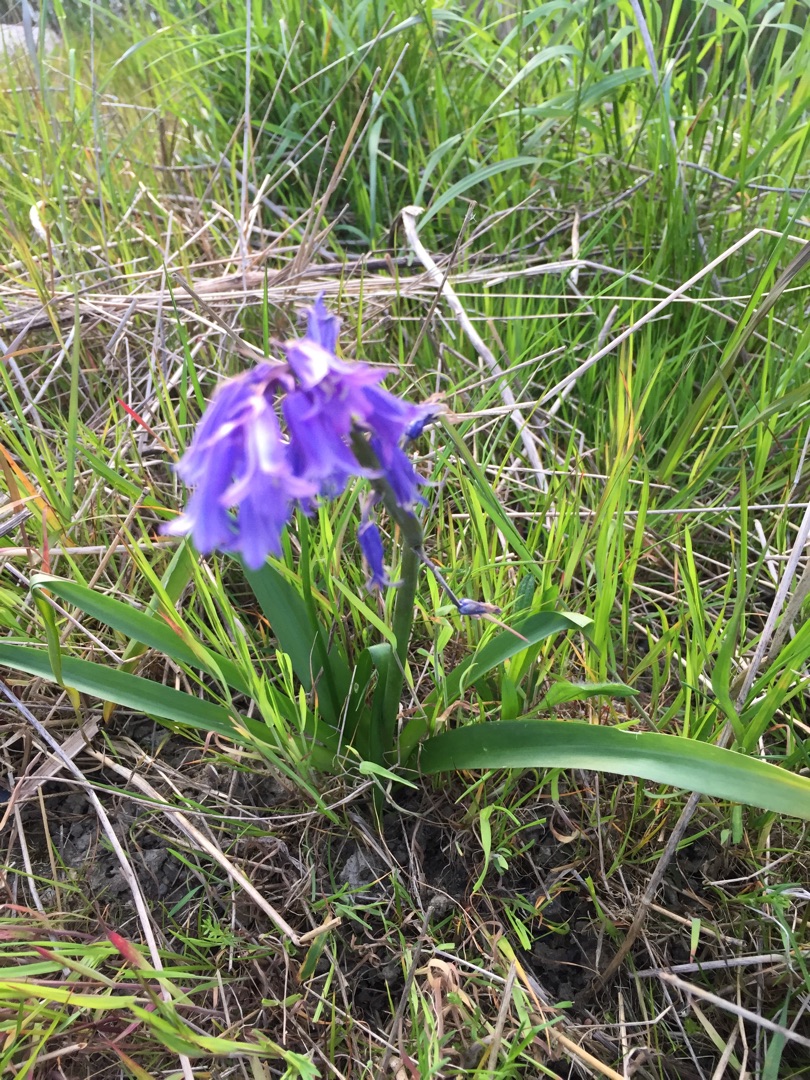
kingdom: Plantae
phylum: Tracheophyta
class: Liliopsida
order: Asparagales
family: Asparagaceae
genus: Hyacinthoides
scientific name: Hyacinthoides massartiana
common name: Hybrid-klokkeskilla
